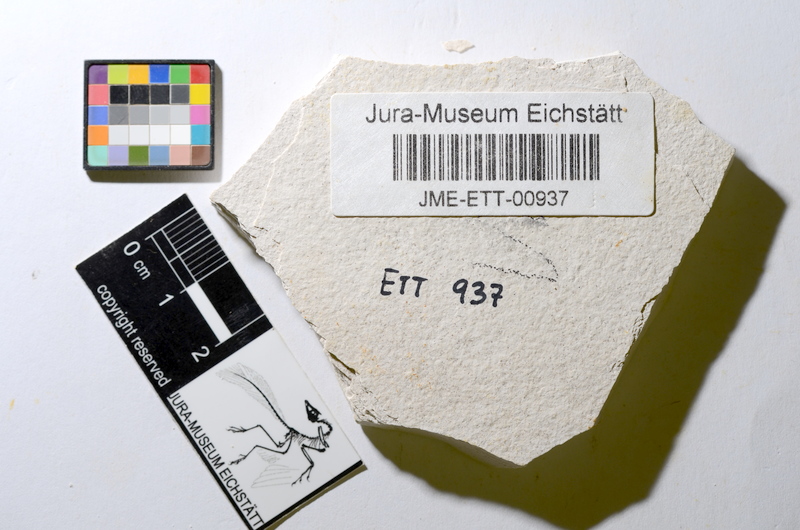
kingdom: Animalia
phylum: Chordata
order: Salmoniformes
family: Orthogonikleithridae
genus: Orthogonikleithrus
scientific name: Orthogonikleithrus hoelli
